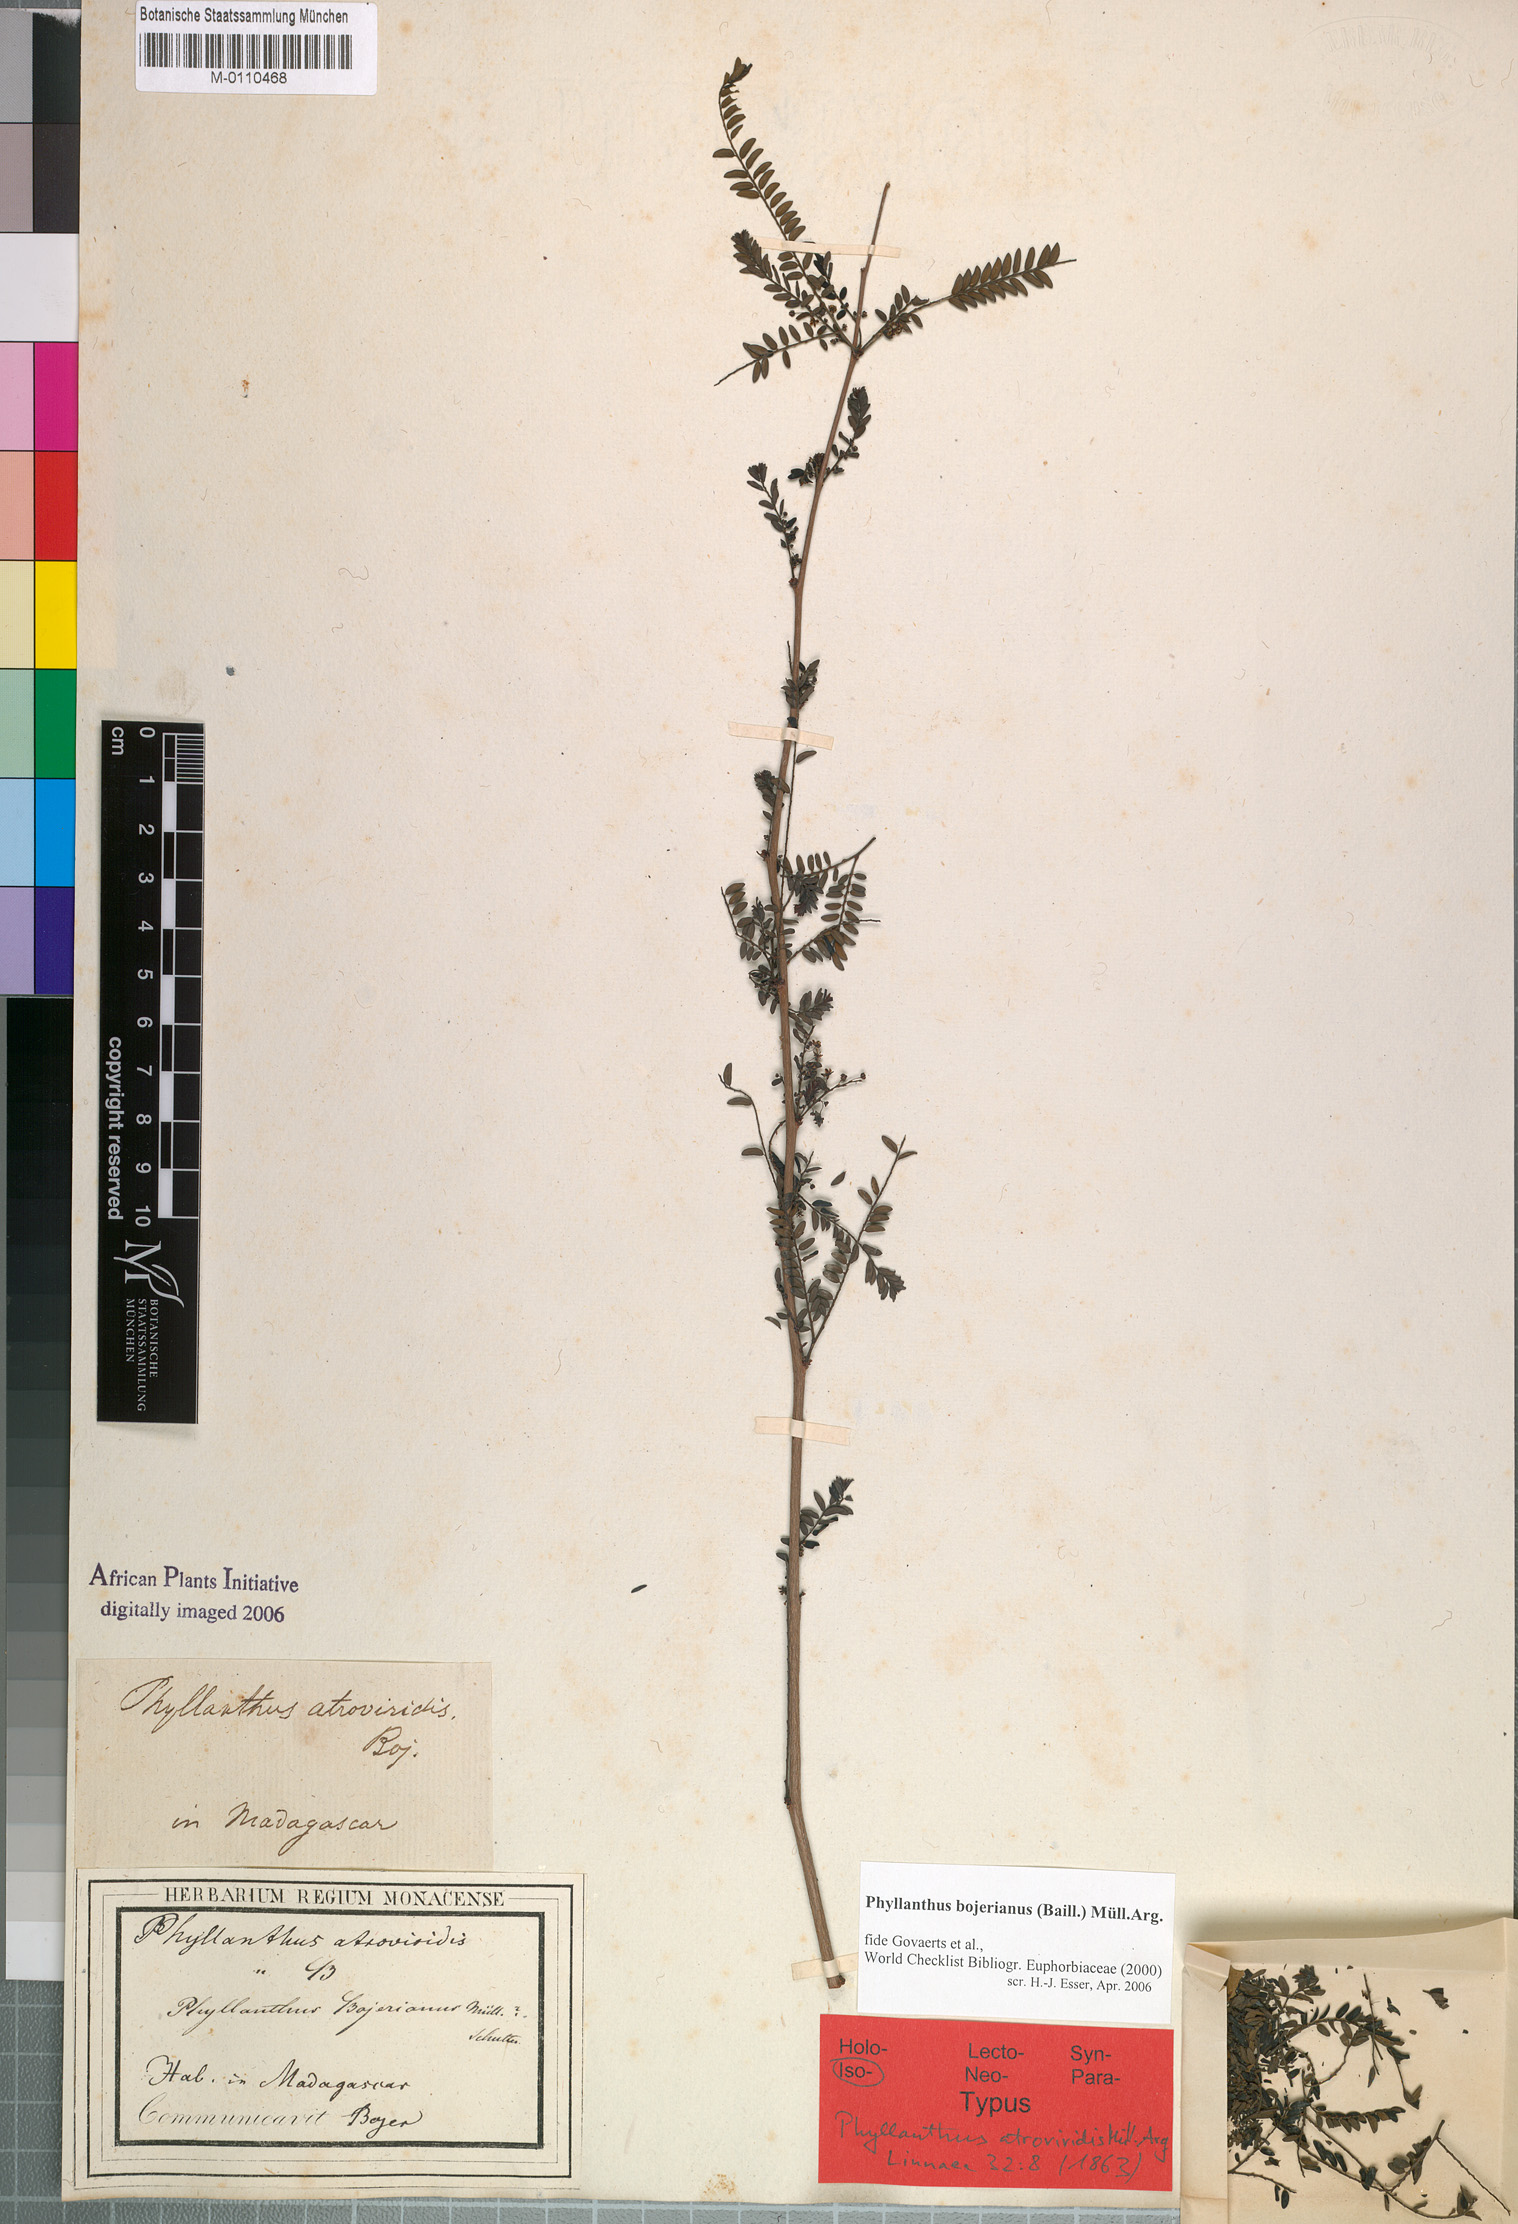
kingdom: Plantae
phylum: Tracheophyta
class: Magnoliopsida
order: Malpighiales
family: Phyllanthaceae
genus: Phyllanthus
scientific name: Phyllanthus bojerianus
